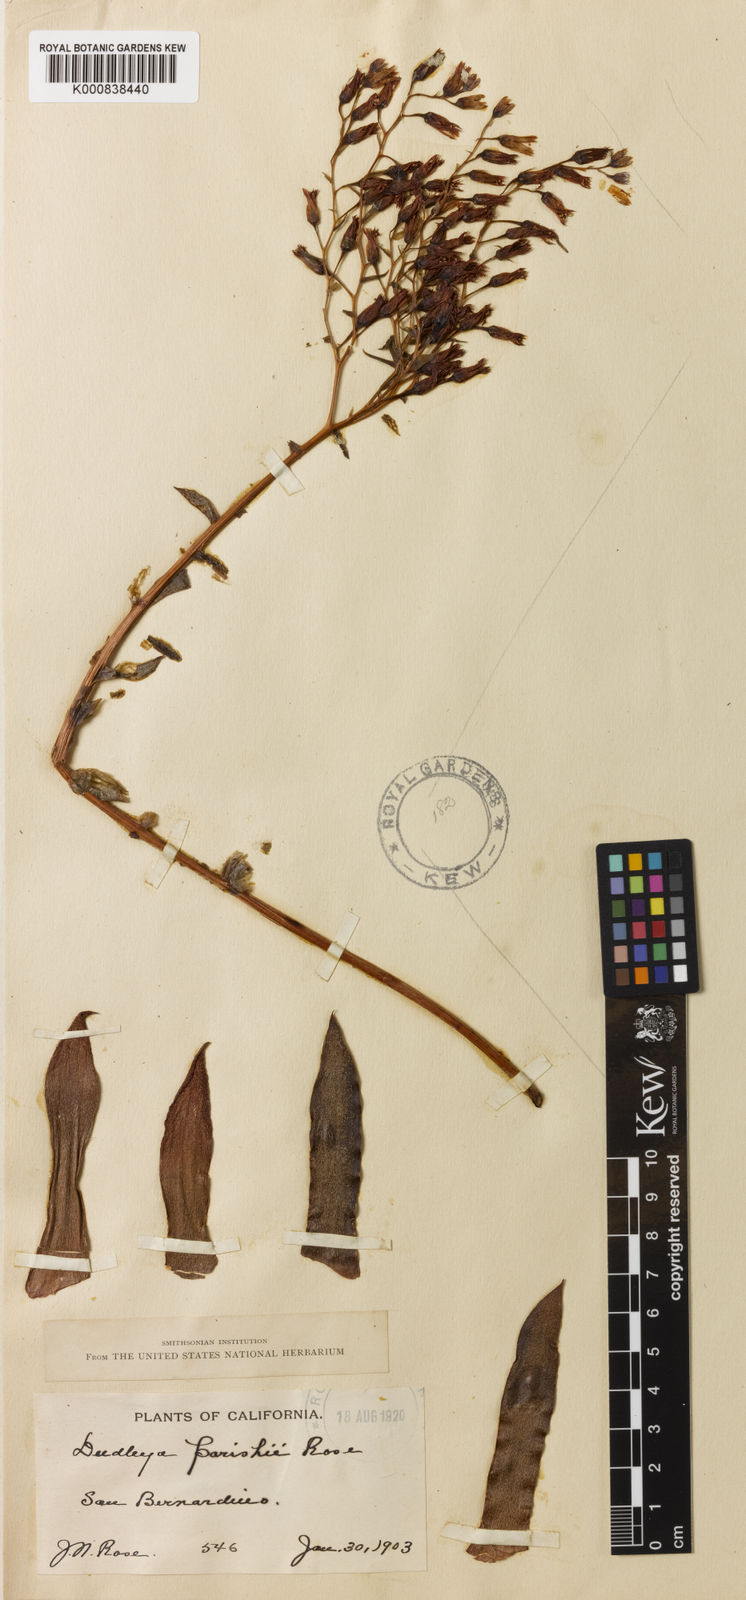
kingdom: Plantae
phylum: Tracheophyta
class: Magnoliopsida
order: Saxifragales
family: Crassulaceae
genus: Dudleya
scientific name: Dudleya attenuata
